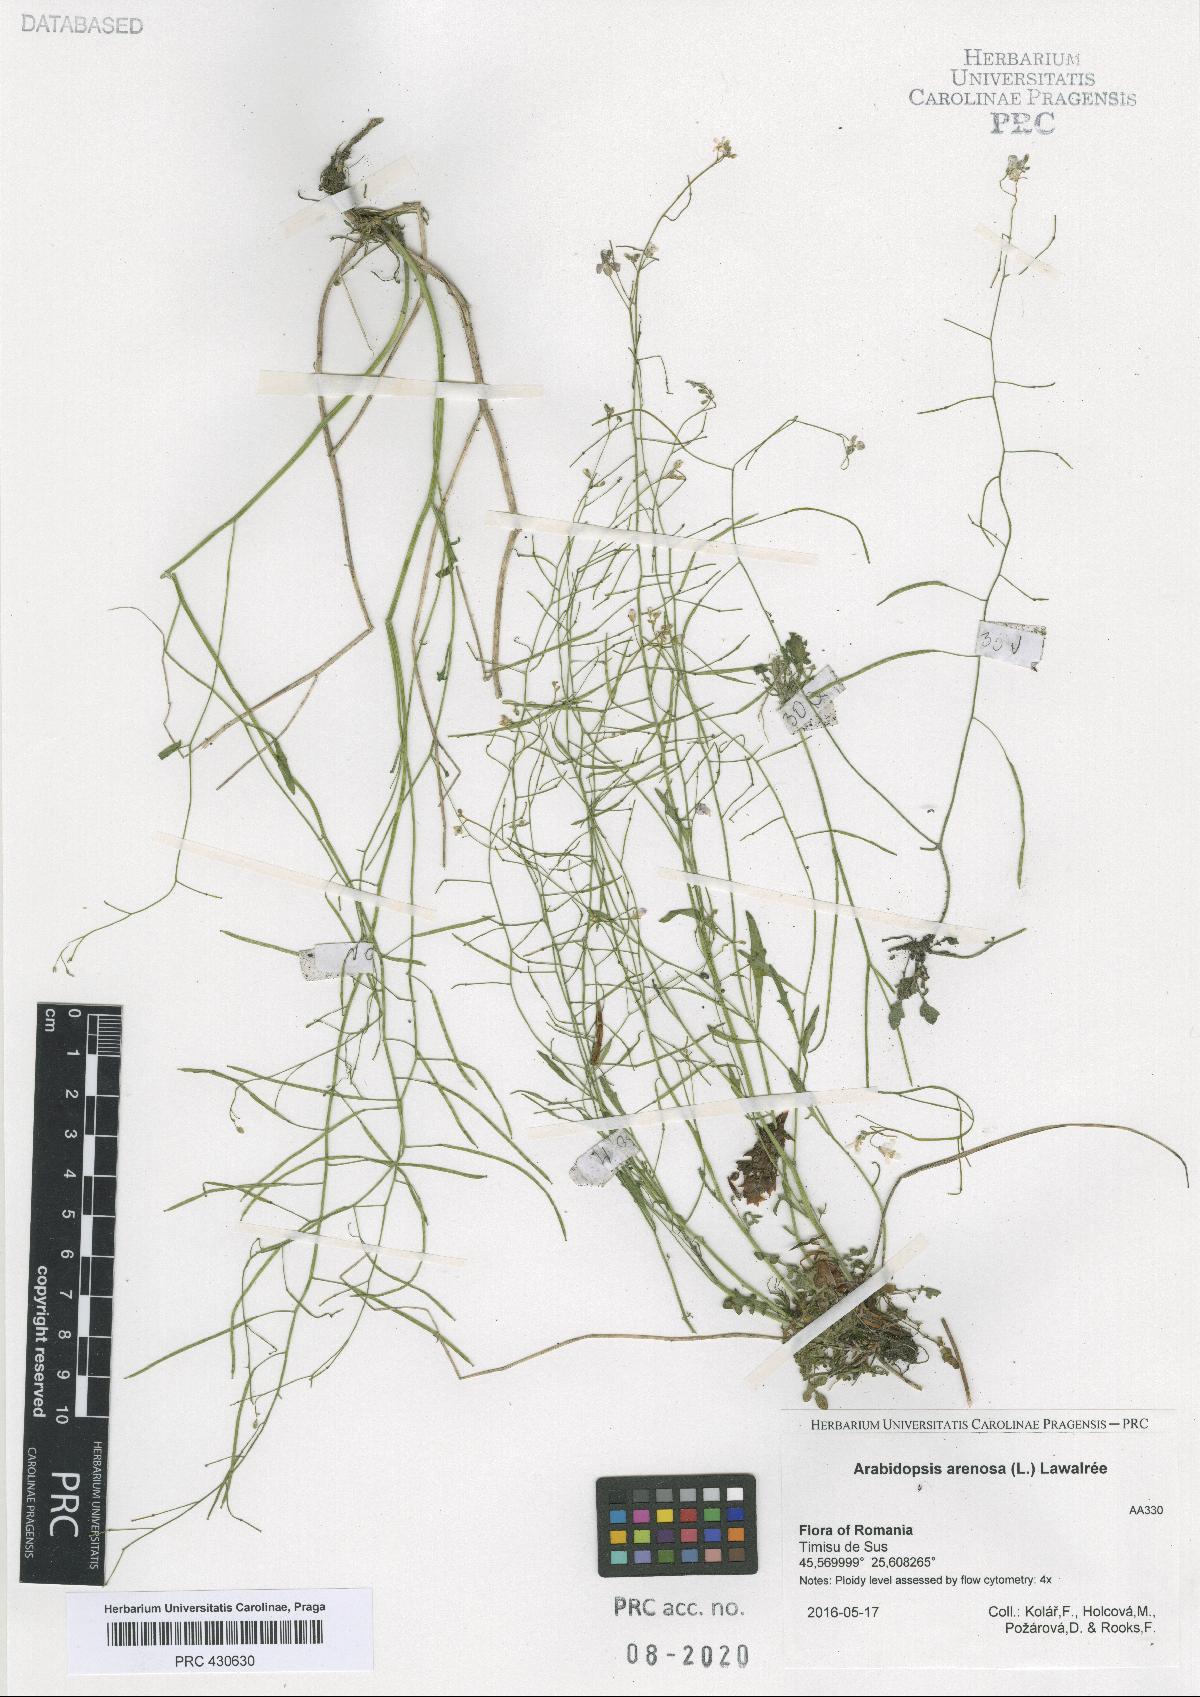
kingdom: Plantae
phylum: Tracheophyta
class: Magnoliopsida
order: Brassicales
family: Brassicaceae
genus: Arabidopsis
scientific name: Arabidopsis arenosa
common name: Sand rock-cress
